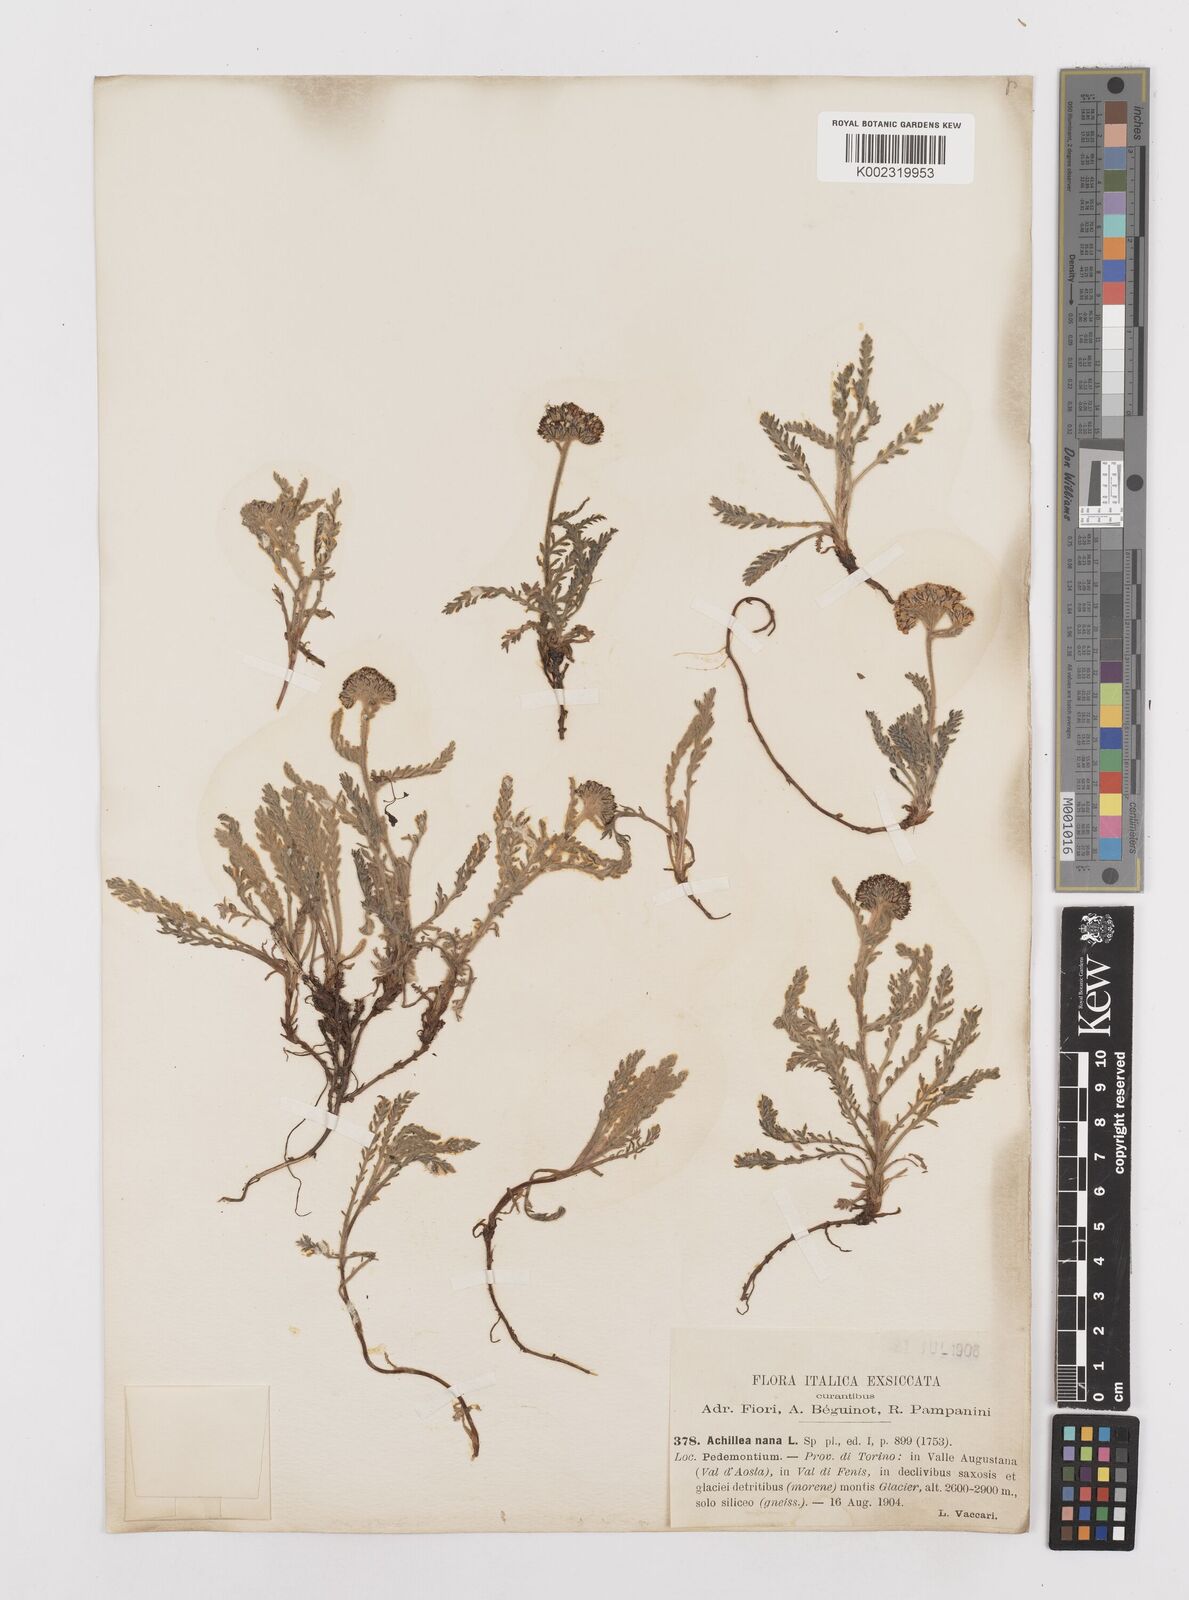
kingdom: Plantae
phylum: Tracheophyta
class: Magnoliopsida
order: Asterales
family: Asteraceae
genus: Achillea
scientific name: Achillea
